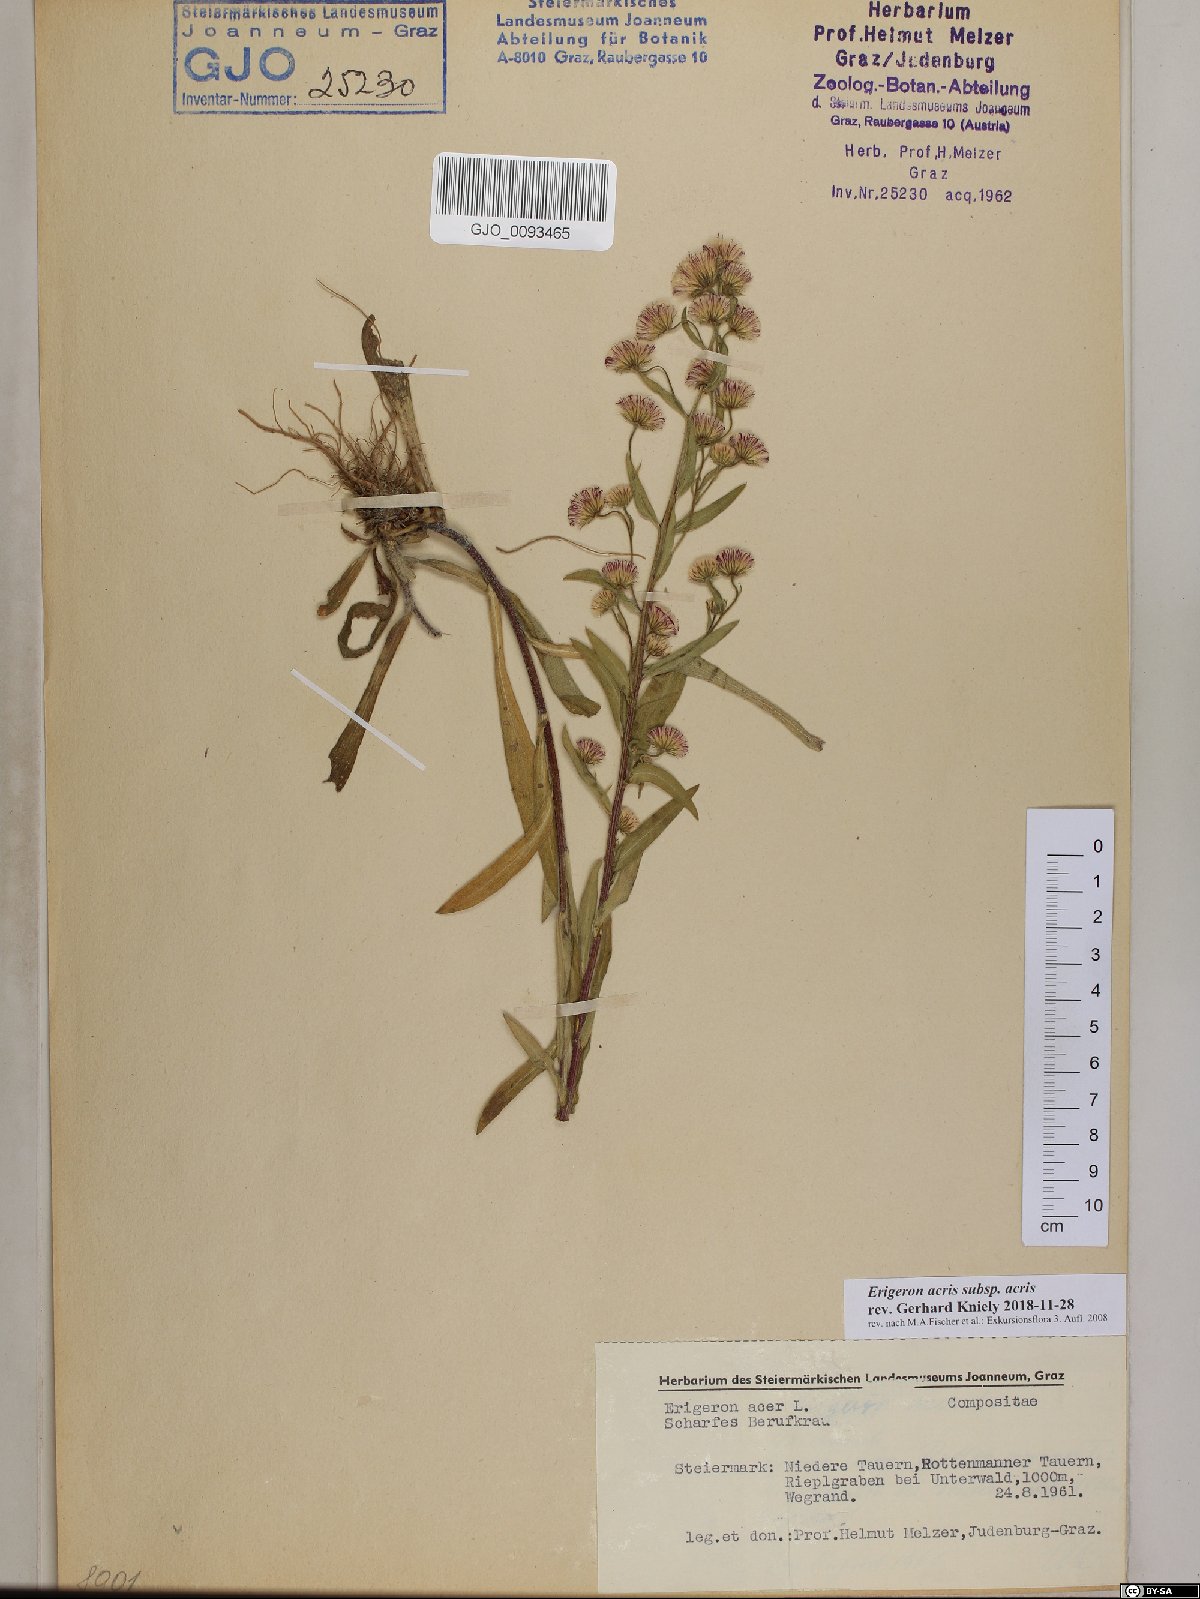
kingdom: Plantae
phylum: Tracheophyta
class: Magnoliopsida
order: Asterales
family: Asteraceae
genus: Erigeron
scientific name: Erigeron acris
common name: Blue fleabane
